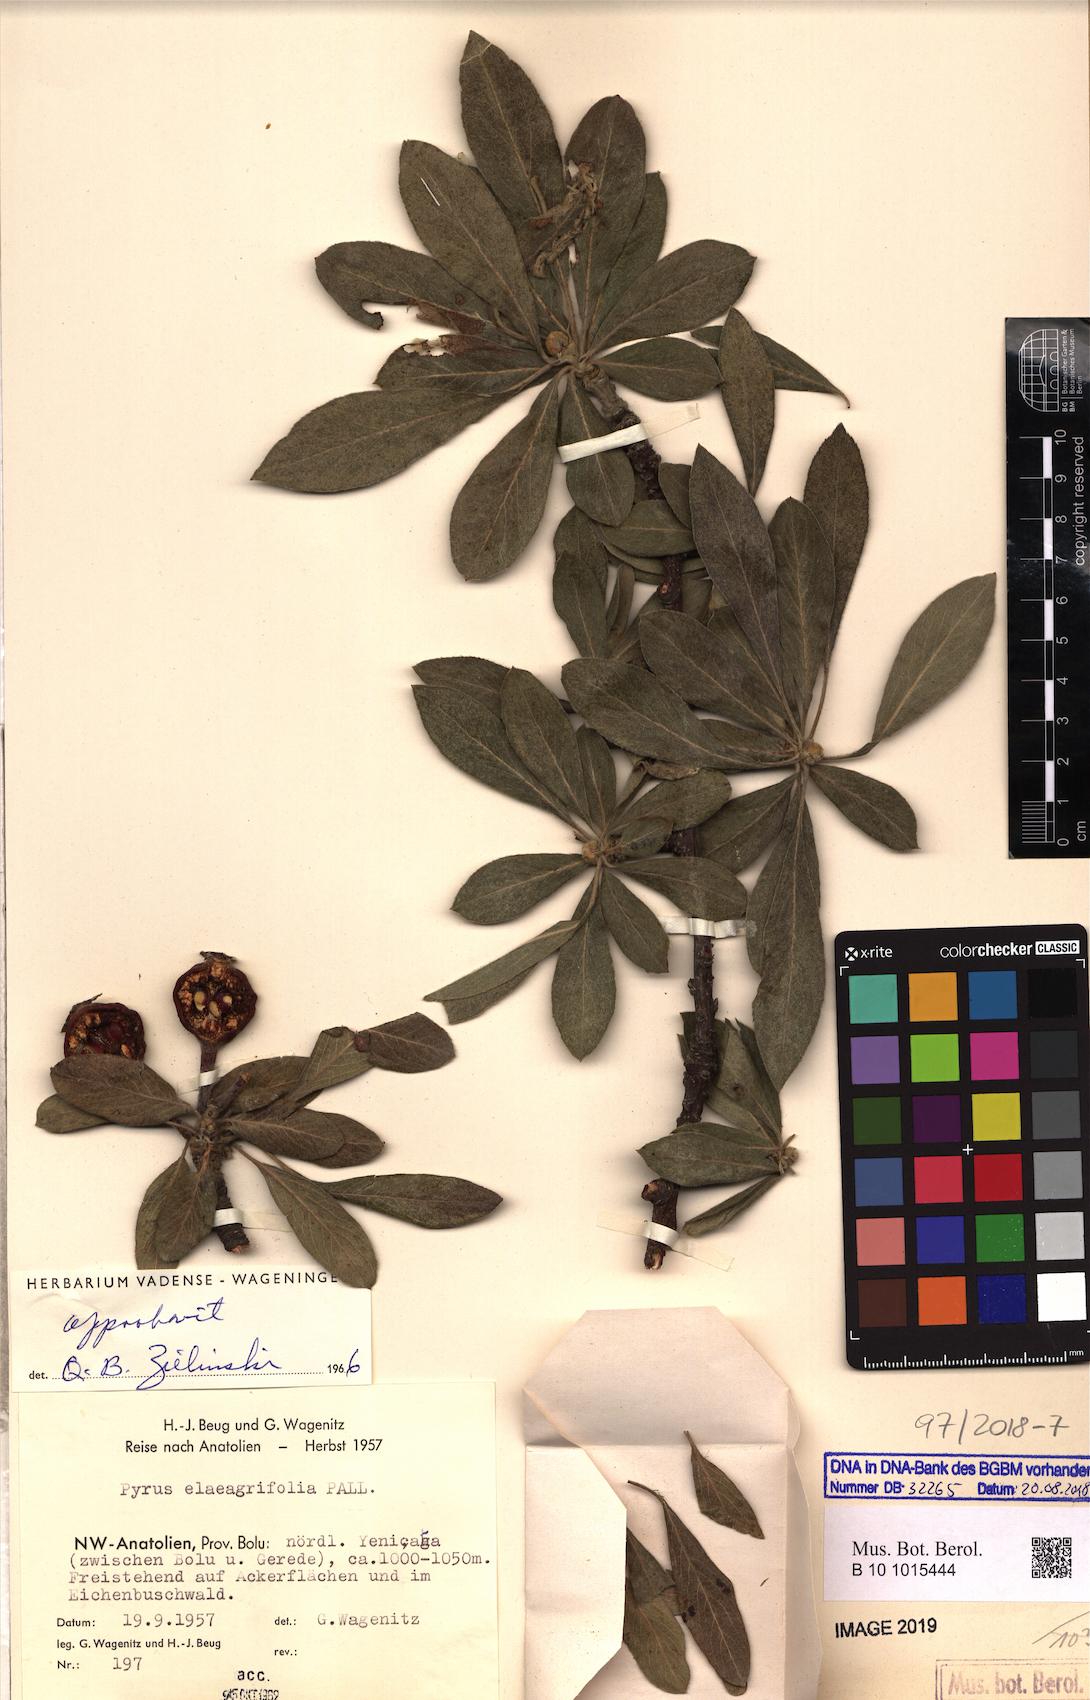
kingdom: Plantae
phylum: Tracheophyta
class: Magnoliopsida
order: Rosales
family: Rosaceae
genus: Pyrus
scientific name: Pyrus elaeagrifolia
